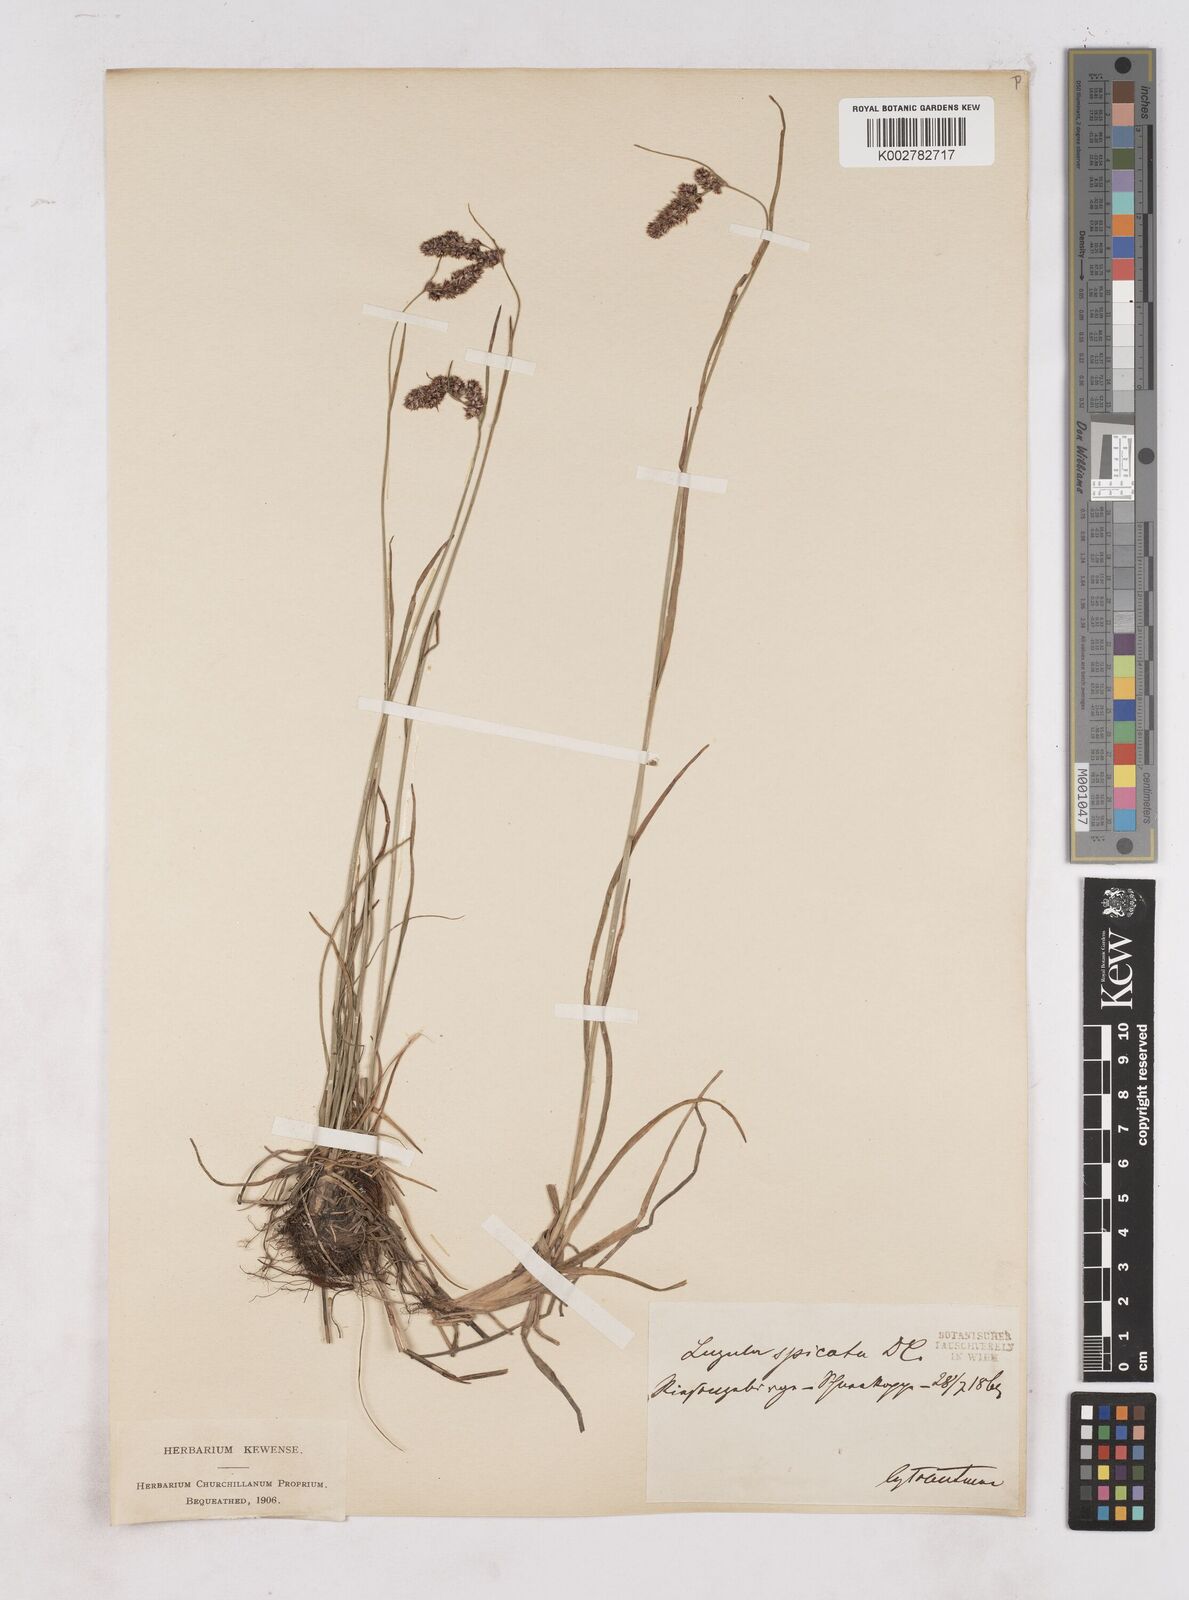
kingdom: Plantae
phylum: Tracheophyta
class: Liliopsida
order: Poales
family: Juncaceae
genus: Luzula
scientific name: Luzula spicata
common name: Spiked wood-rush
